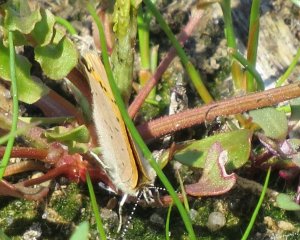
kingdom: Animalia
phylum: Arthropoda
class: Insecta
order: Lepidoptera
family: Lycaenidae
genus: Epidemia
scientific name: Epidemia dorcas
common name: Dorcas Copper
